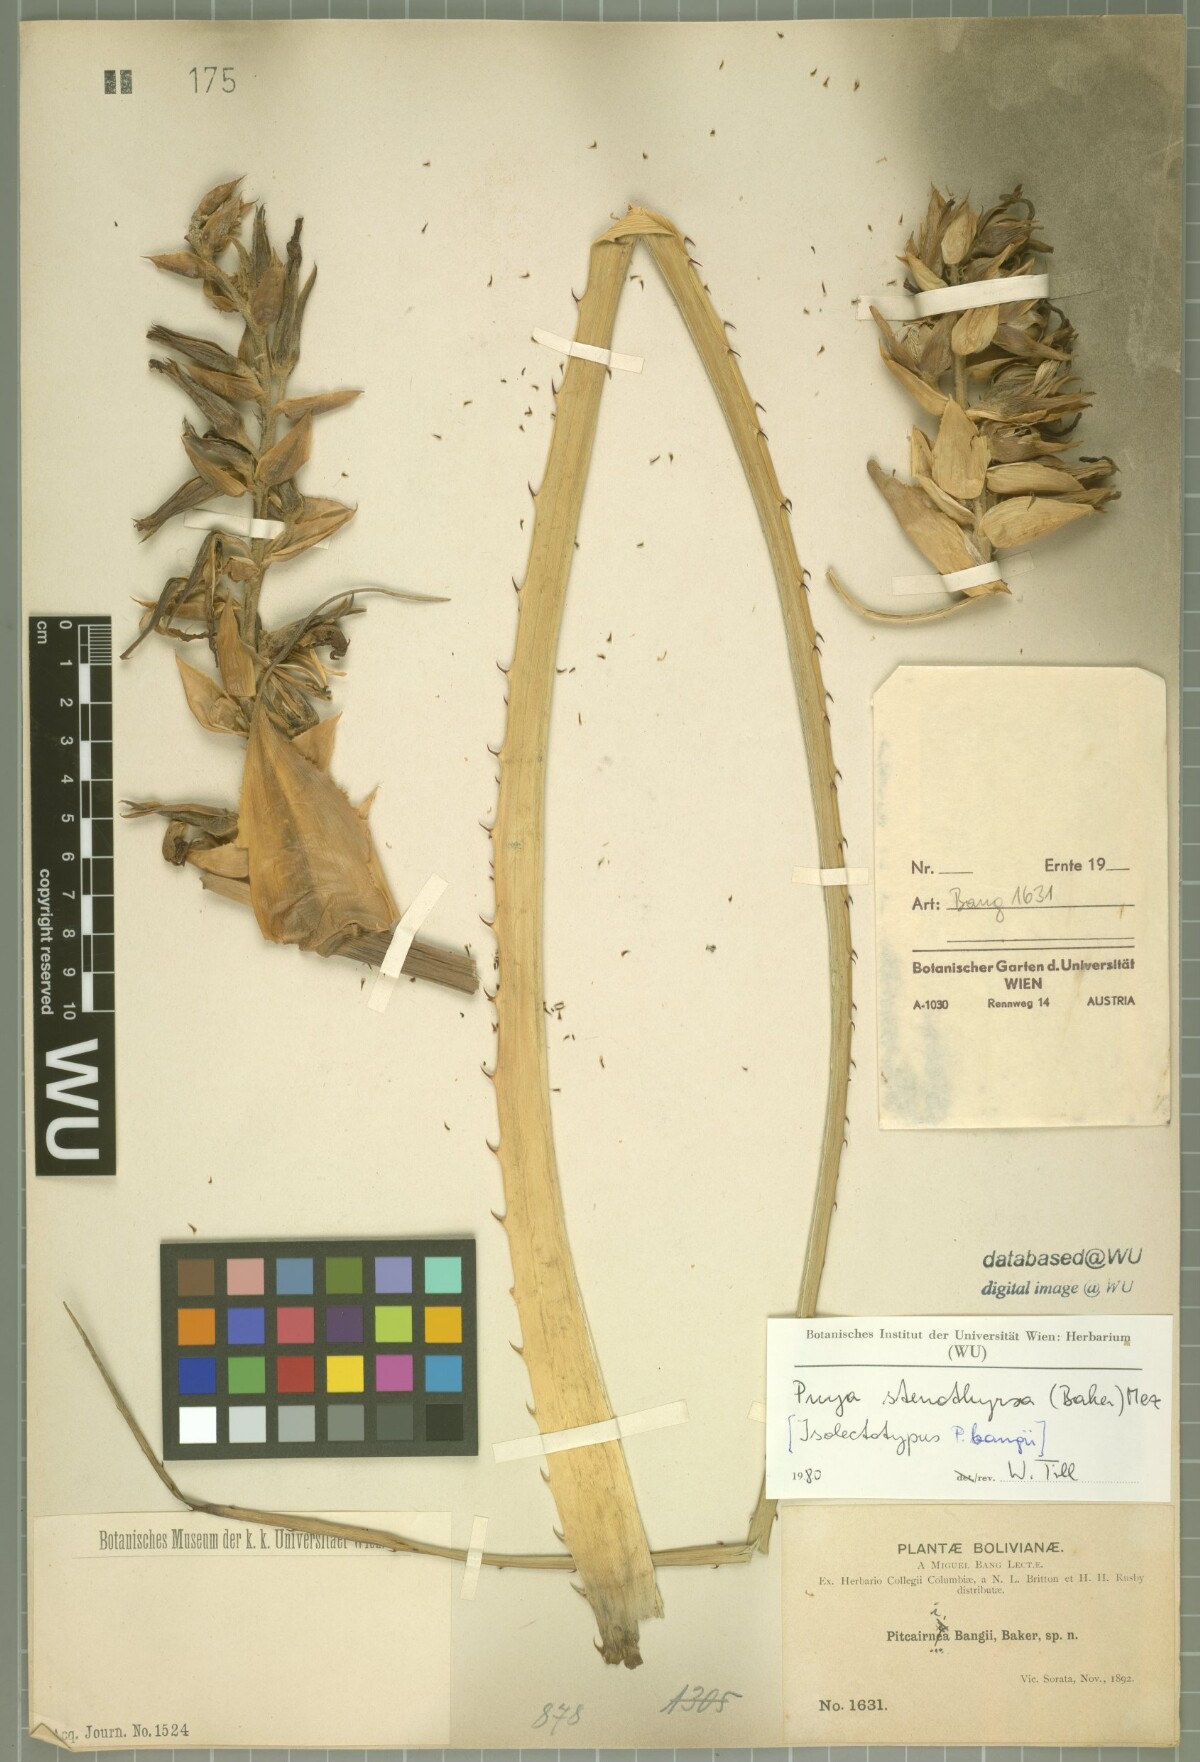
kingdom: Plantae
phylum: Tracheophyta
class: Liliopsida
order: Poales
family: Bromeliaceae
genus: Pitcairnia
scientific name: Pitcairnia bangii
